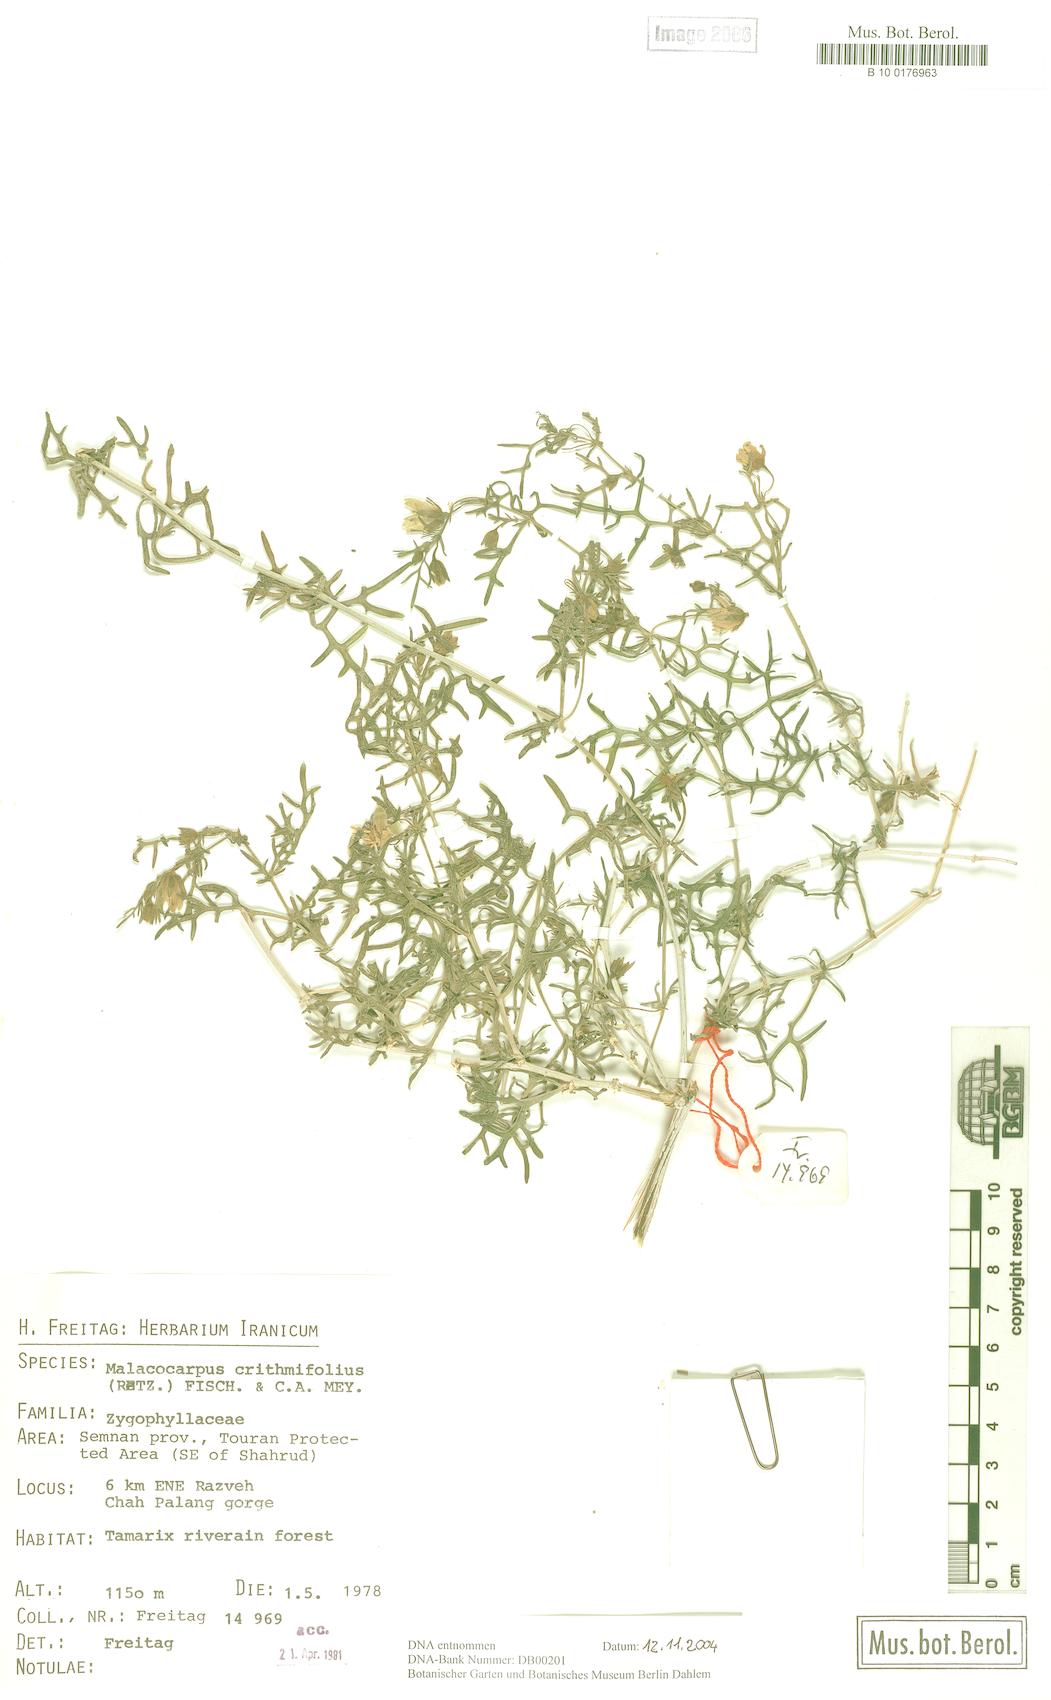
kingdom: Plantae
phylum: Tracheophyta
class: Magnoliopsida
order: Sapindales
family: Tetradiclidaceae
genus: Malacocarpus
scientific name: Malacocarpus crithmifolius
